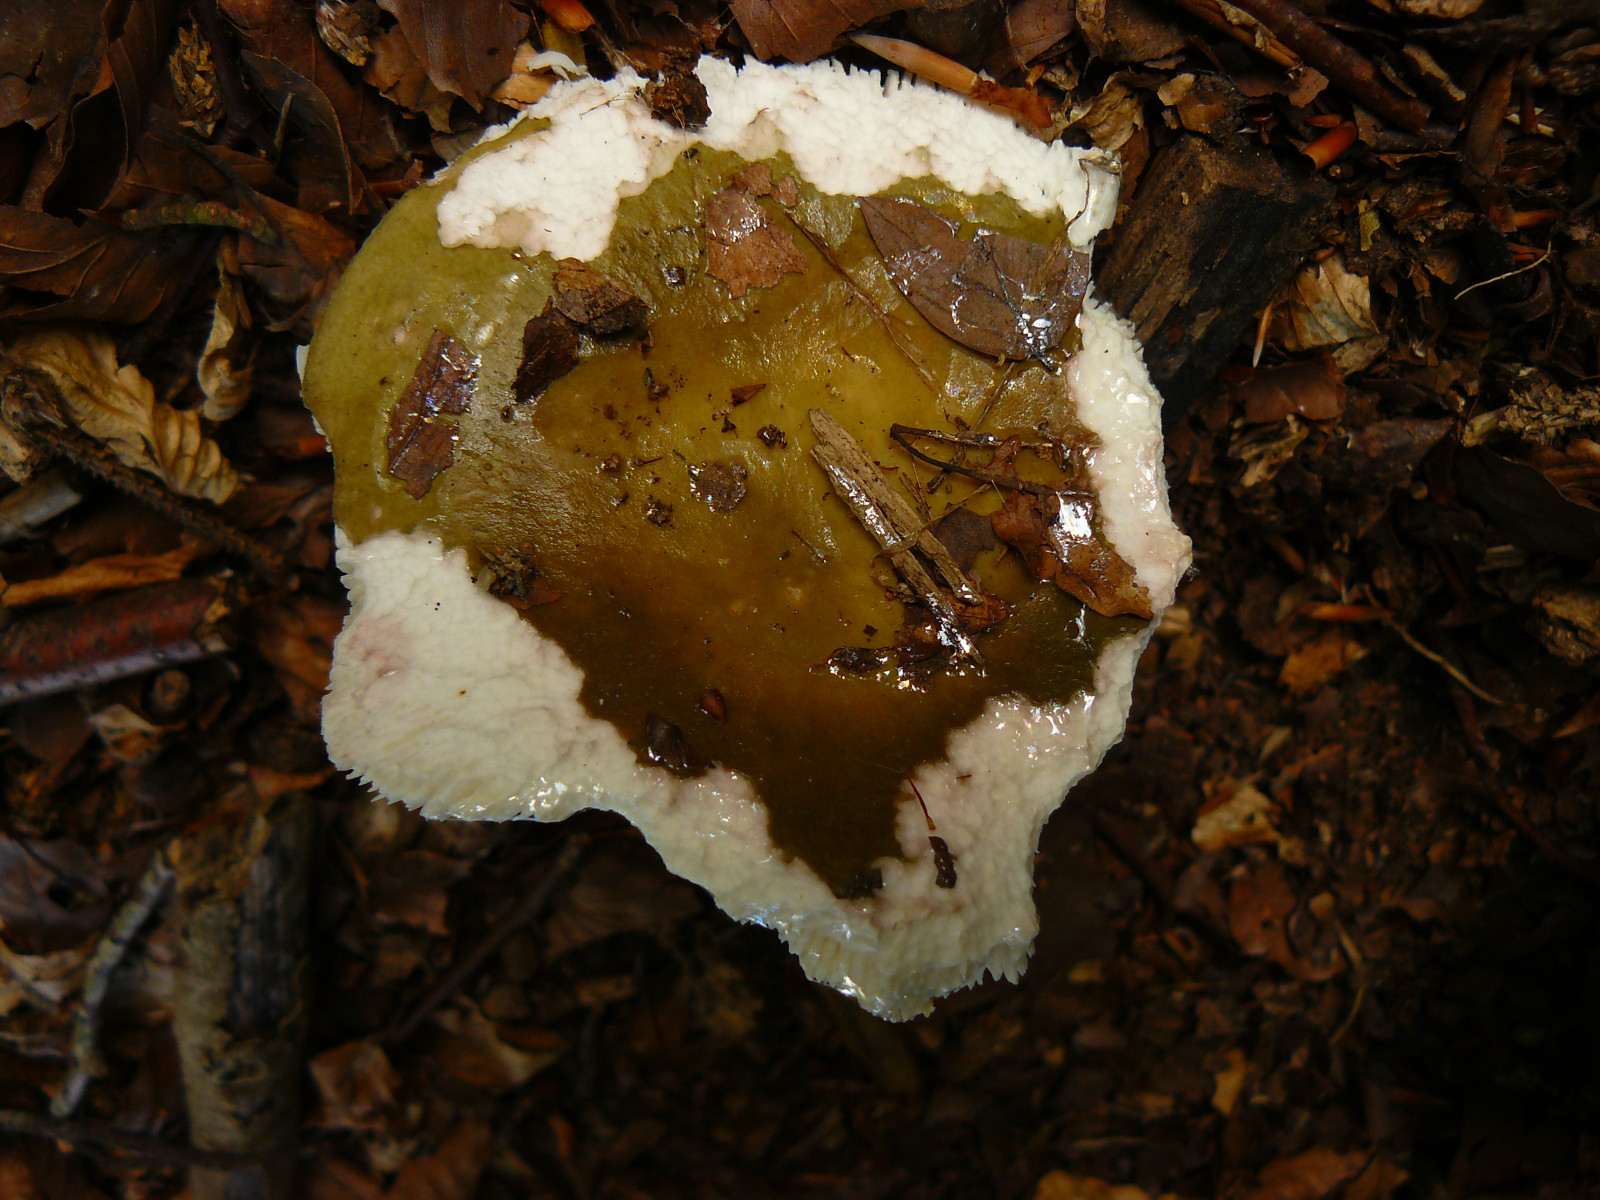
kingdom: Fungi
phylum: Basidiomycota
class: Agaricomycetes
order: Russulales
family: Russulaceae
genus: Russula
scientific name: Russula
